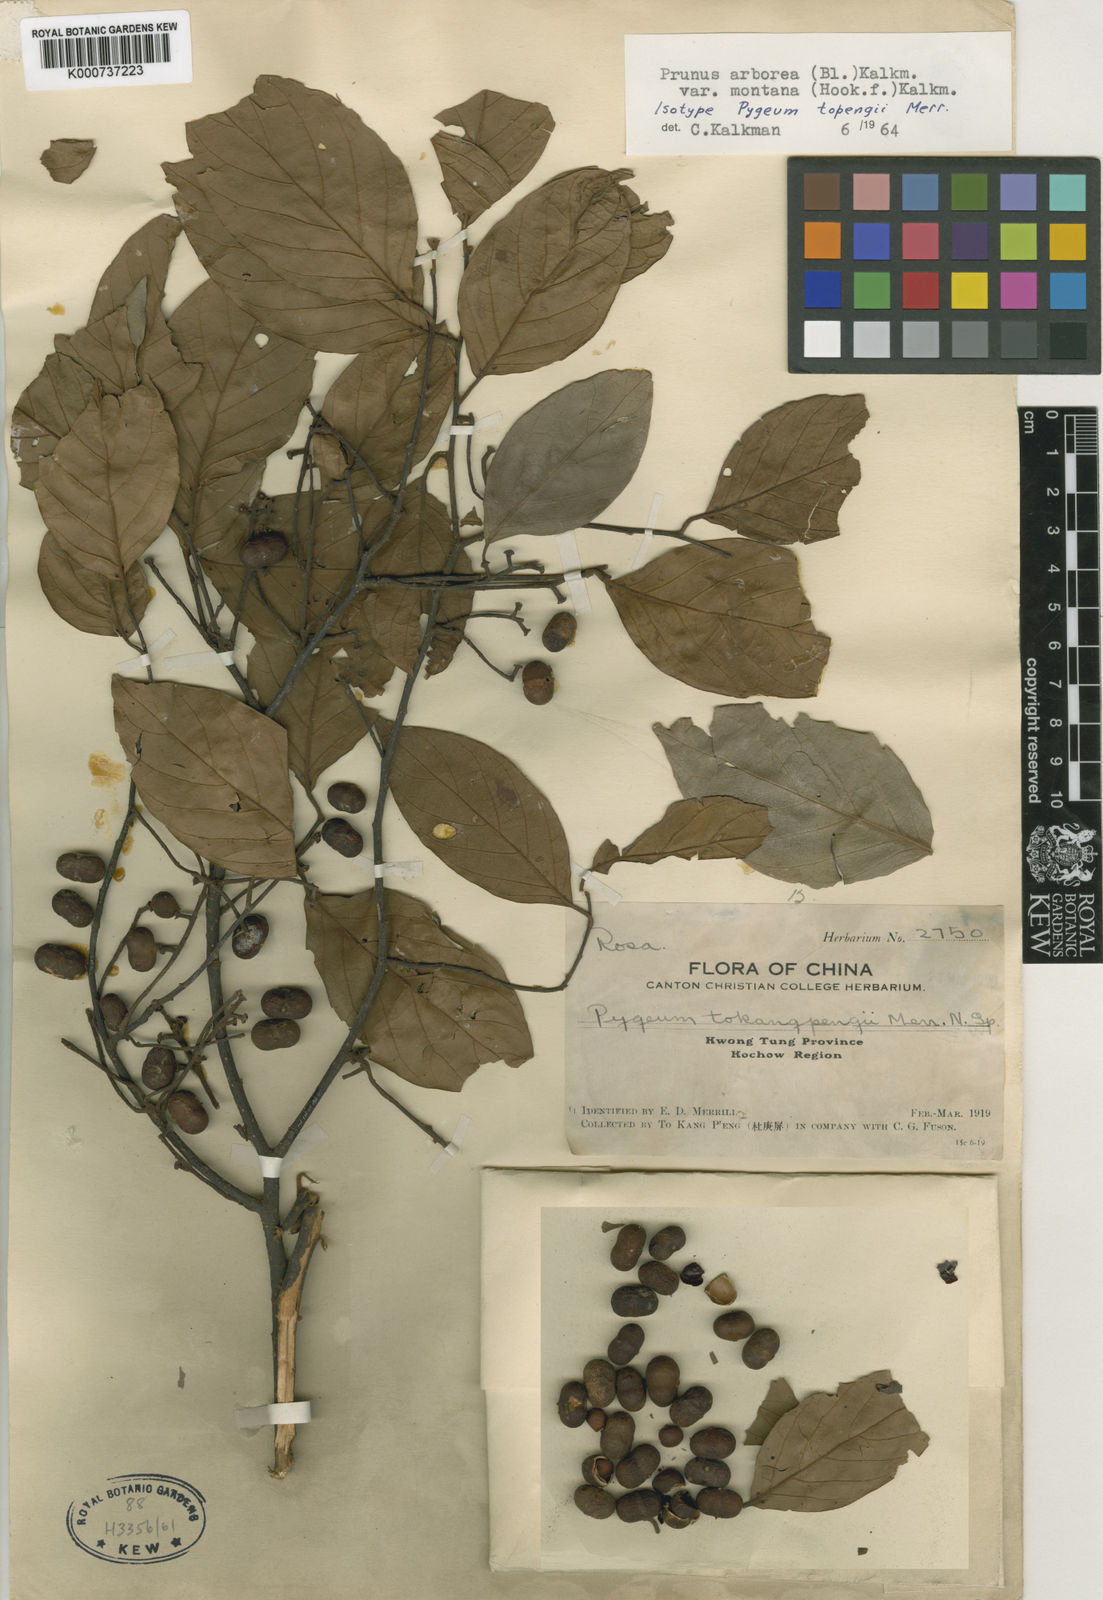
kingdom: Plantae
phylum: Tracheophyta
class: Magnoliopsida
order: Rosales
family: Rosaceae
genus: Prunus
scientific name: Prunus arborea
